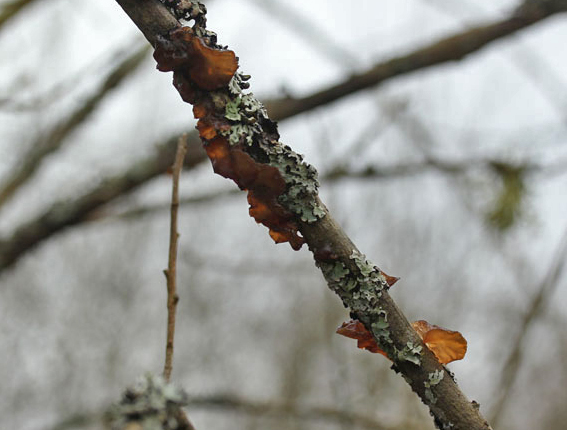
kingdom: Fungi
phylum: Basidiomycota
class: Agaricomycetes
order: Auriculariales
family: Auriculariaceae
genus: Exidia
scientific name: Exidia recisa
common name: pile-bævretop
